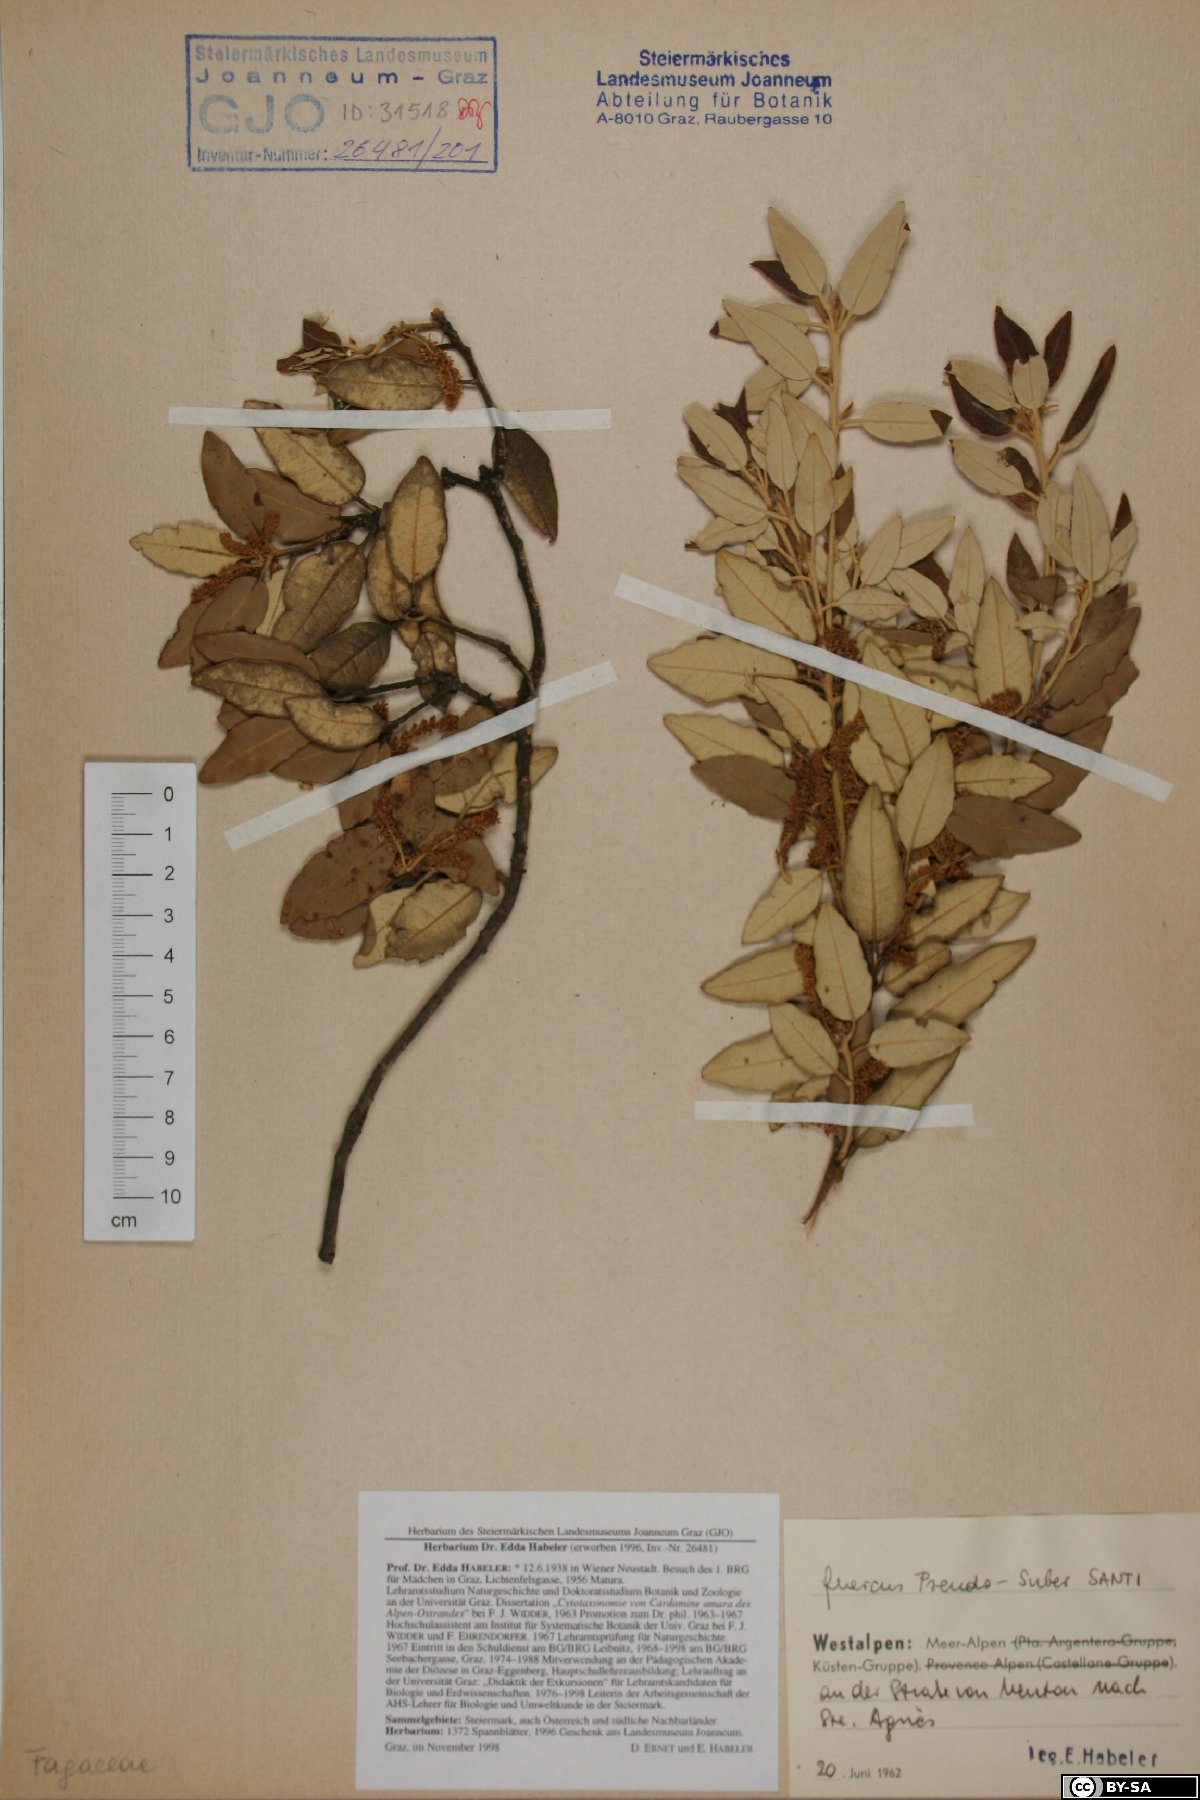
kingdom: Plantae
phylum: Tracheophyta
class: Magnoliopsida
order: Fagales
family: Fagaceae
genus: Quercus
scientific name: Quercus crenata
